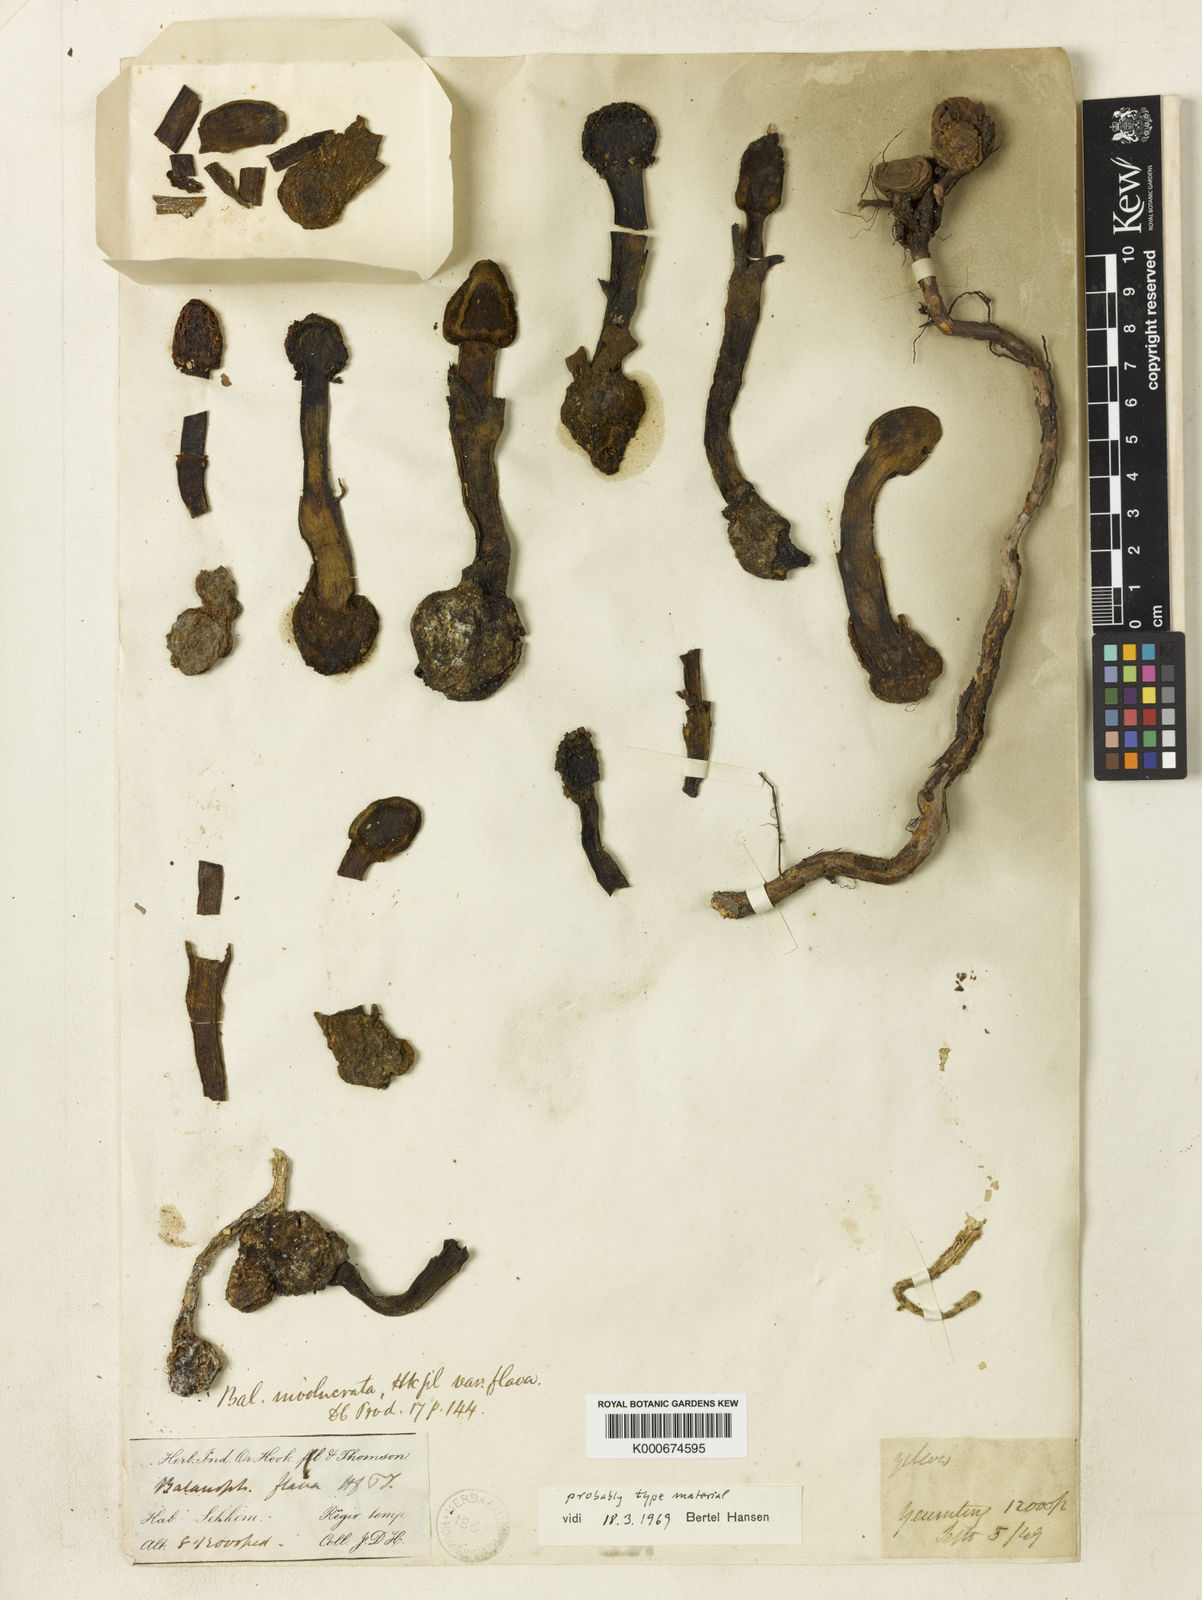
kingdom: Plantae
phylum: Tracheophyta
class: Magnoliopsida
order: Santalales
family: Balanophoraceae
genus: Balanophora
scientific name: Balanophora
